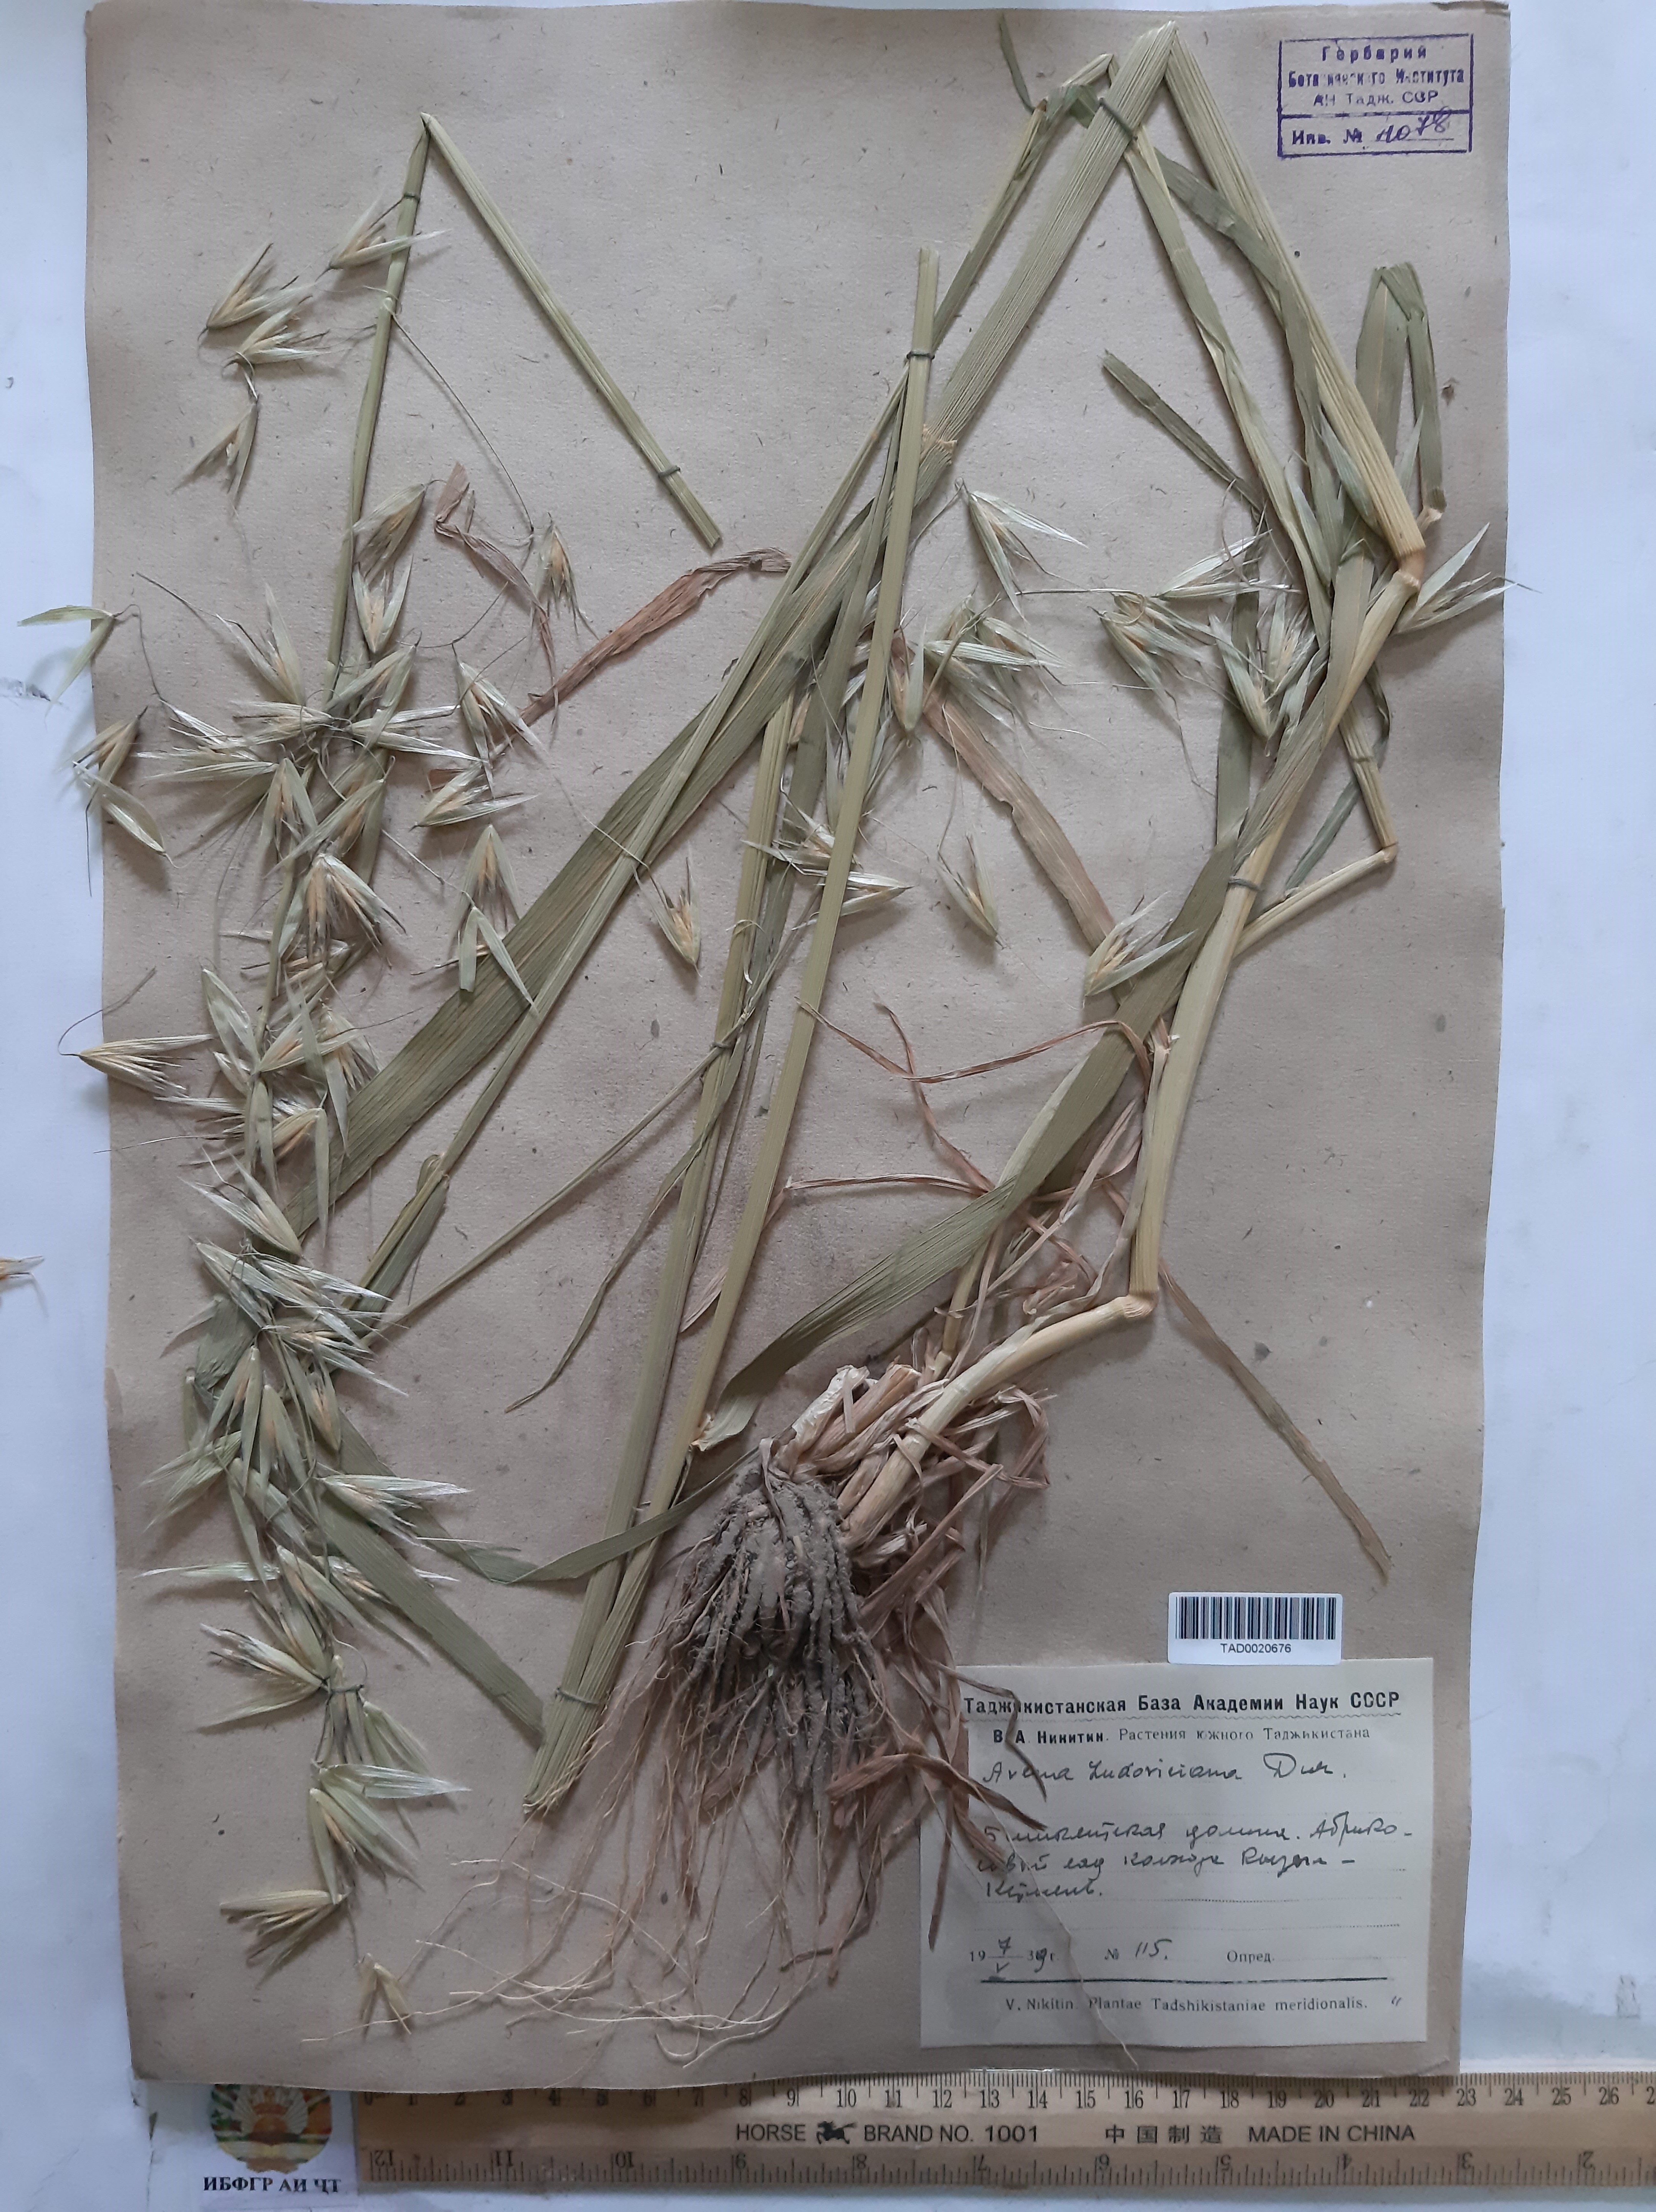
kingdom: Plantae
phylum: Tracheophyta
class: Liliopsida
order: Poales
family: Poaceae
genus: Avena
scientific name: Avena sterilis
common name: Animated oat
